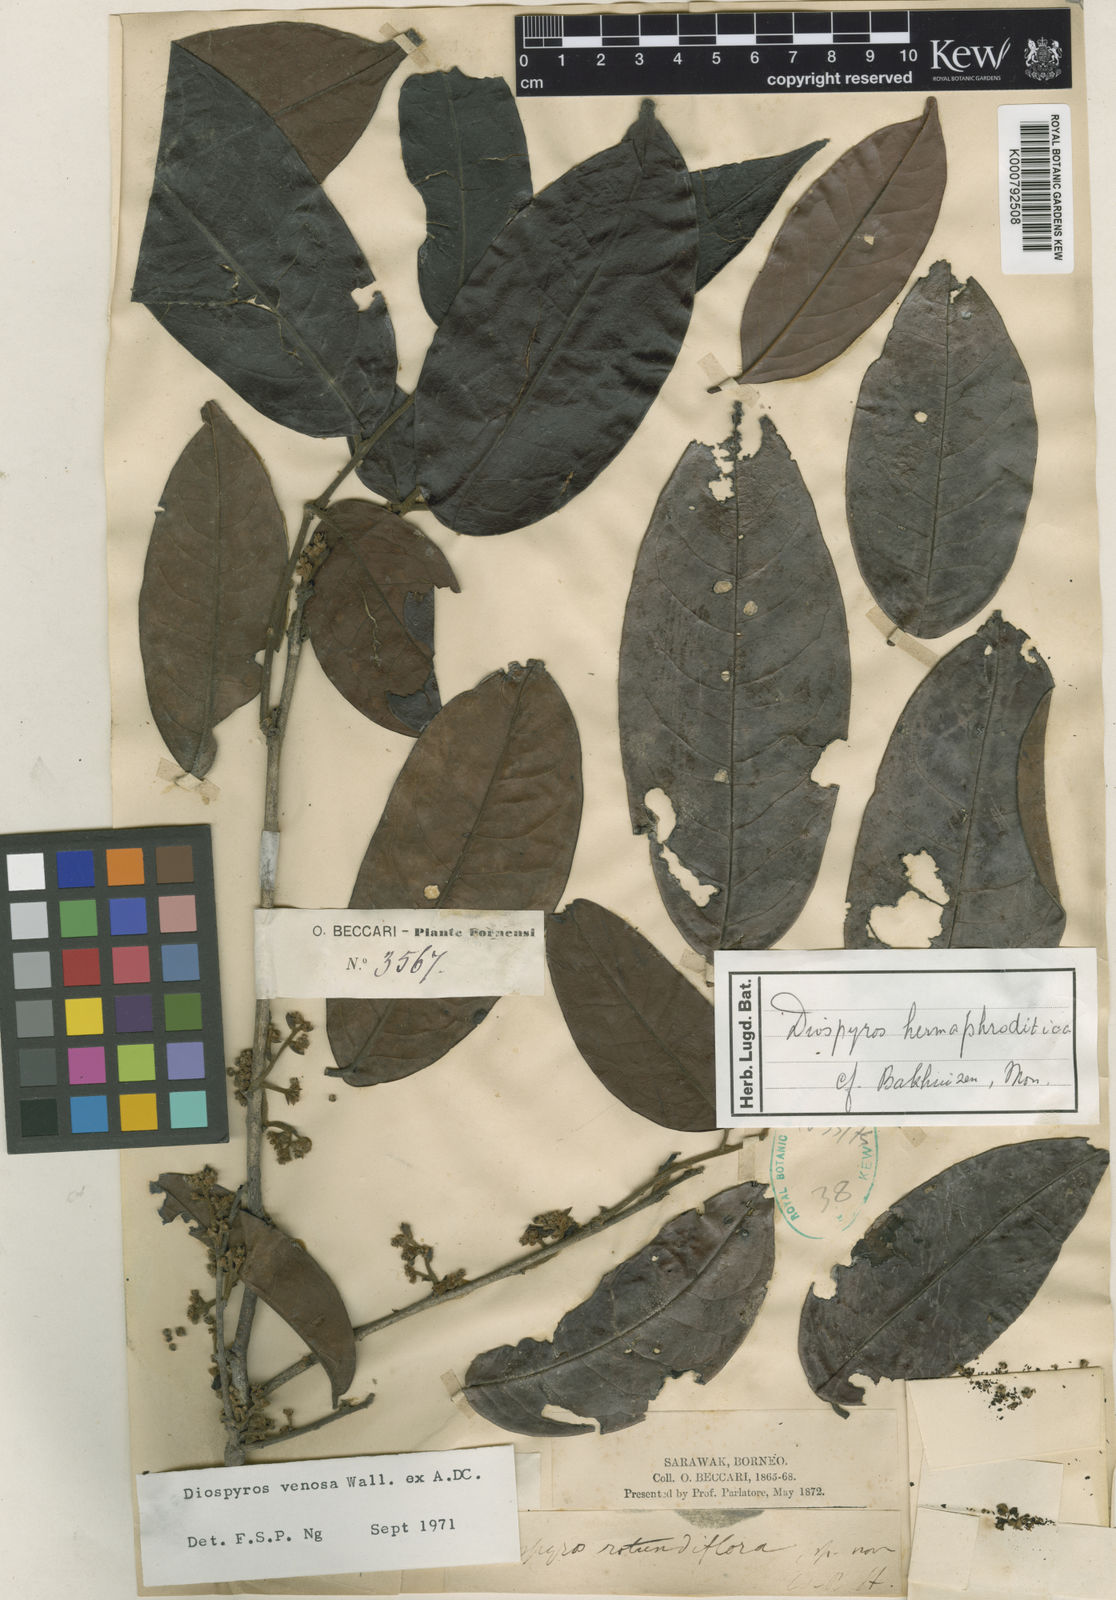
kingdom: Plantae
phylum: Tracheophyta
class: Magnoliopsida
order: Ericales
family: Ebenaceae
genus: Diospyros
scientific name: Diospyros venosa
